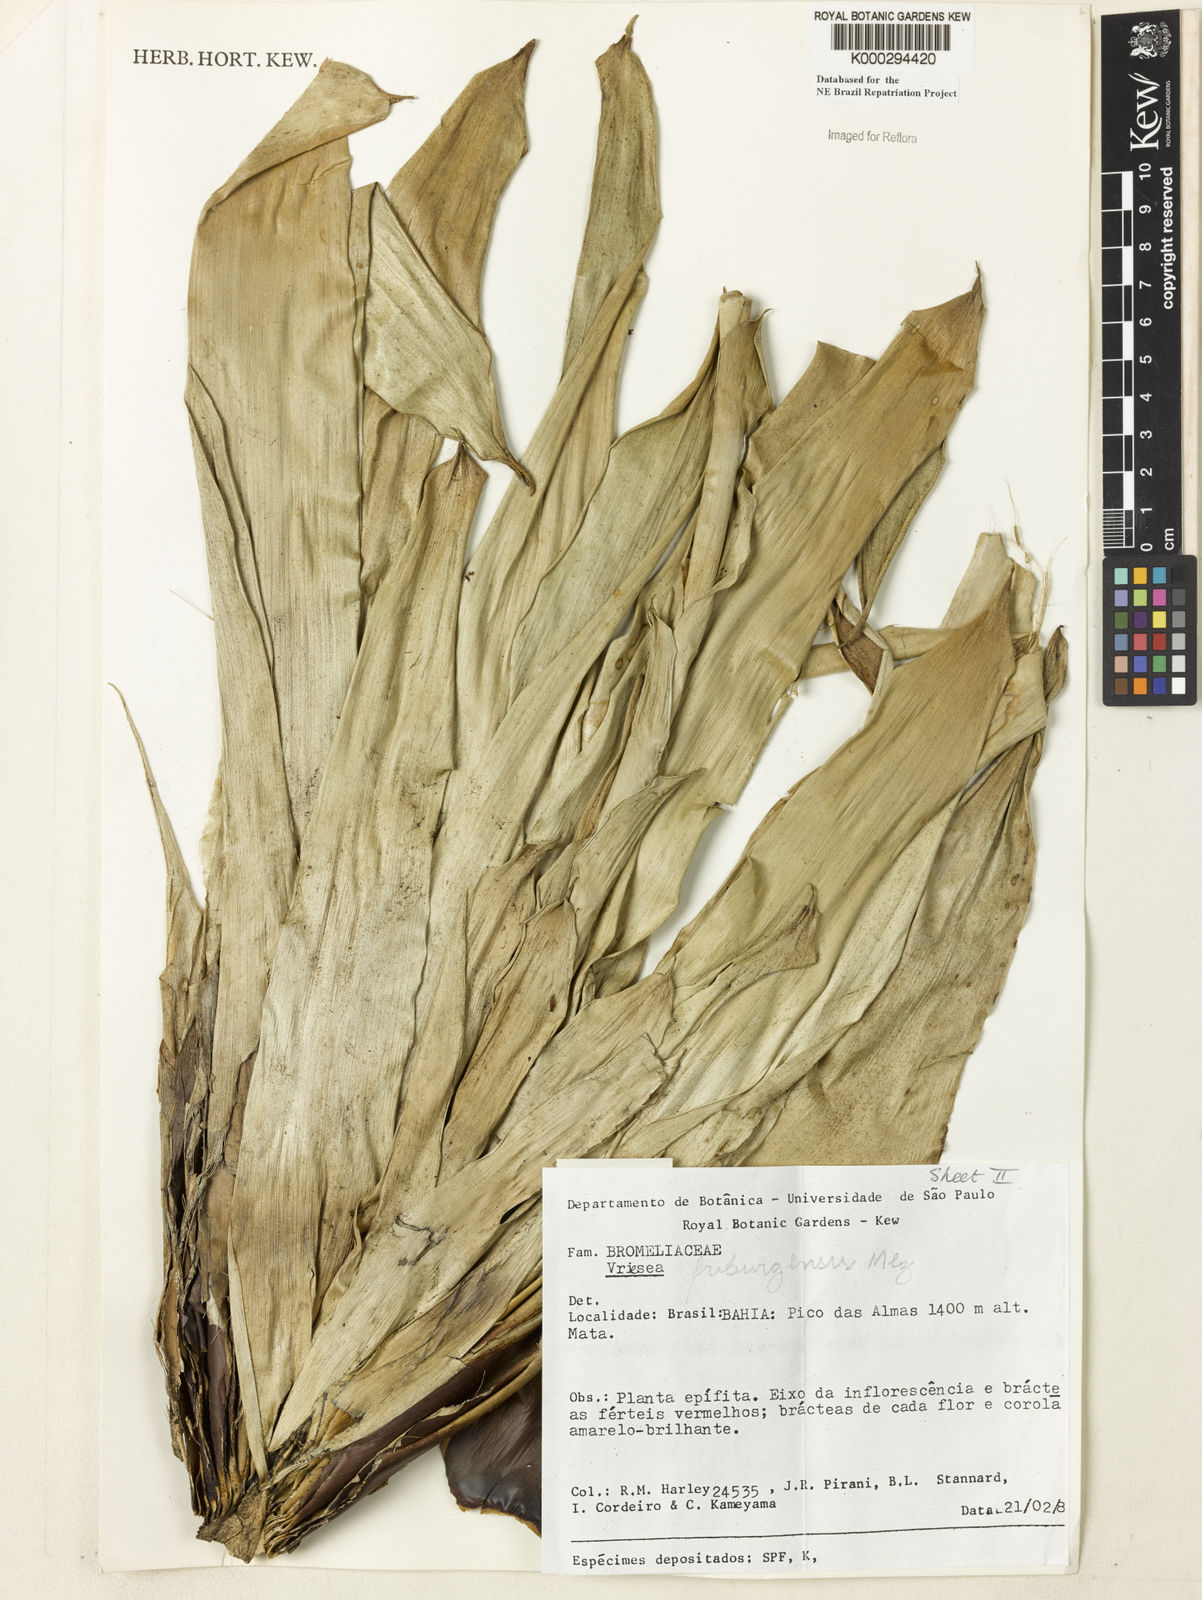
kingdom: Plantae
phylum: Tracheophyta
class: Liliopsida
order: Poales
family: Bromeliaceae
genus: Vriesea
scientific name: Vriesea friburgensis
